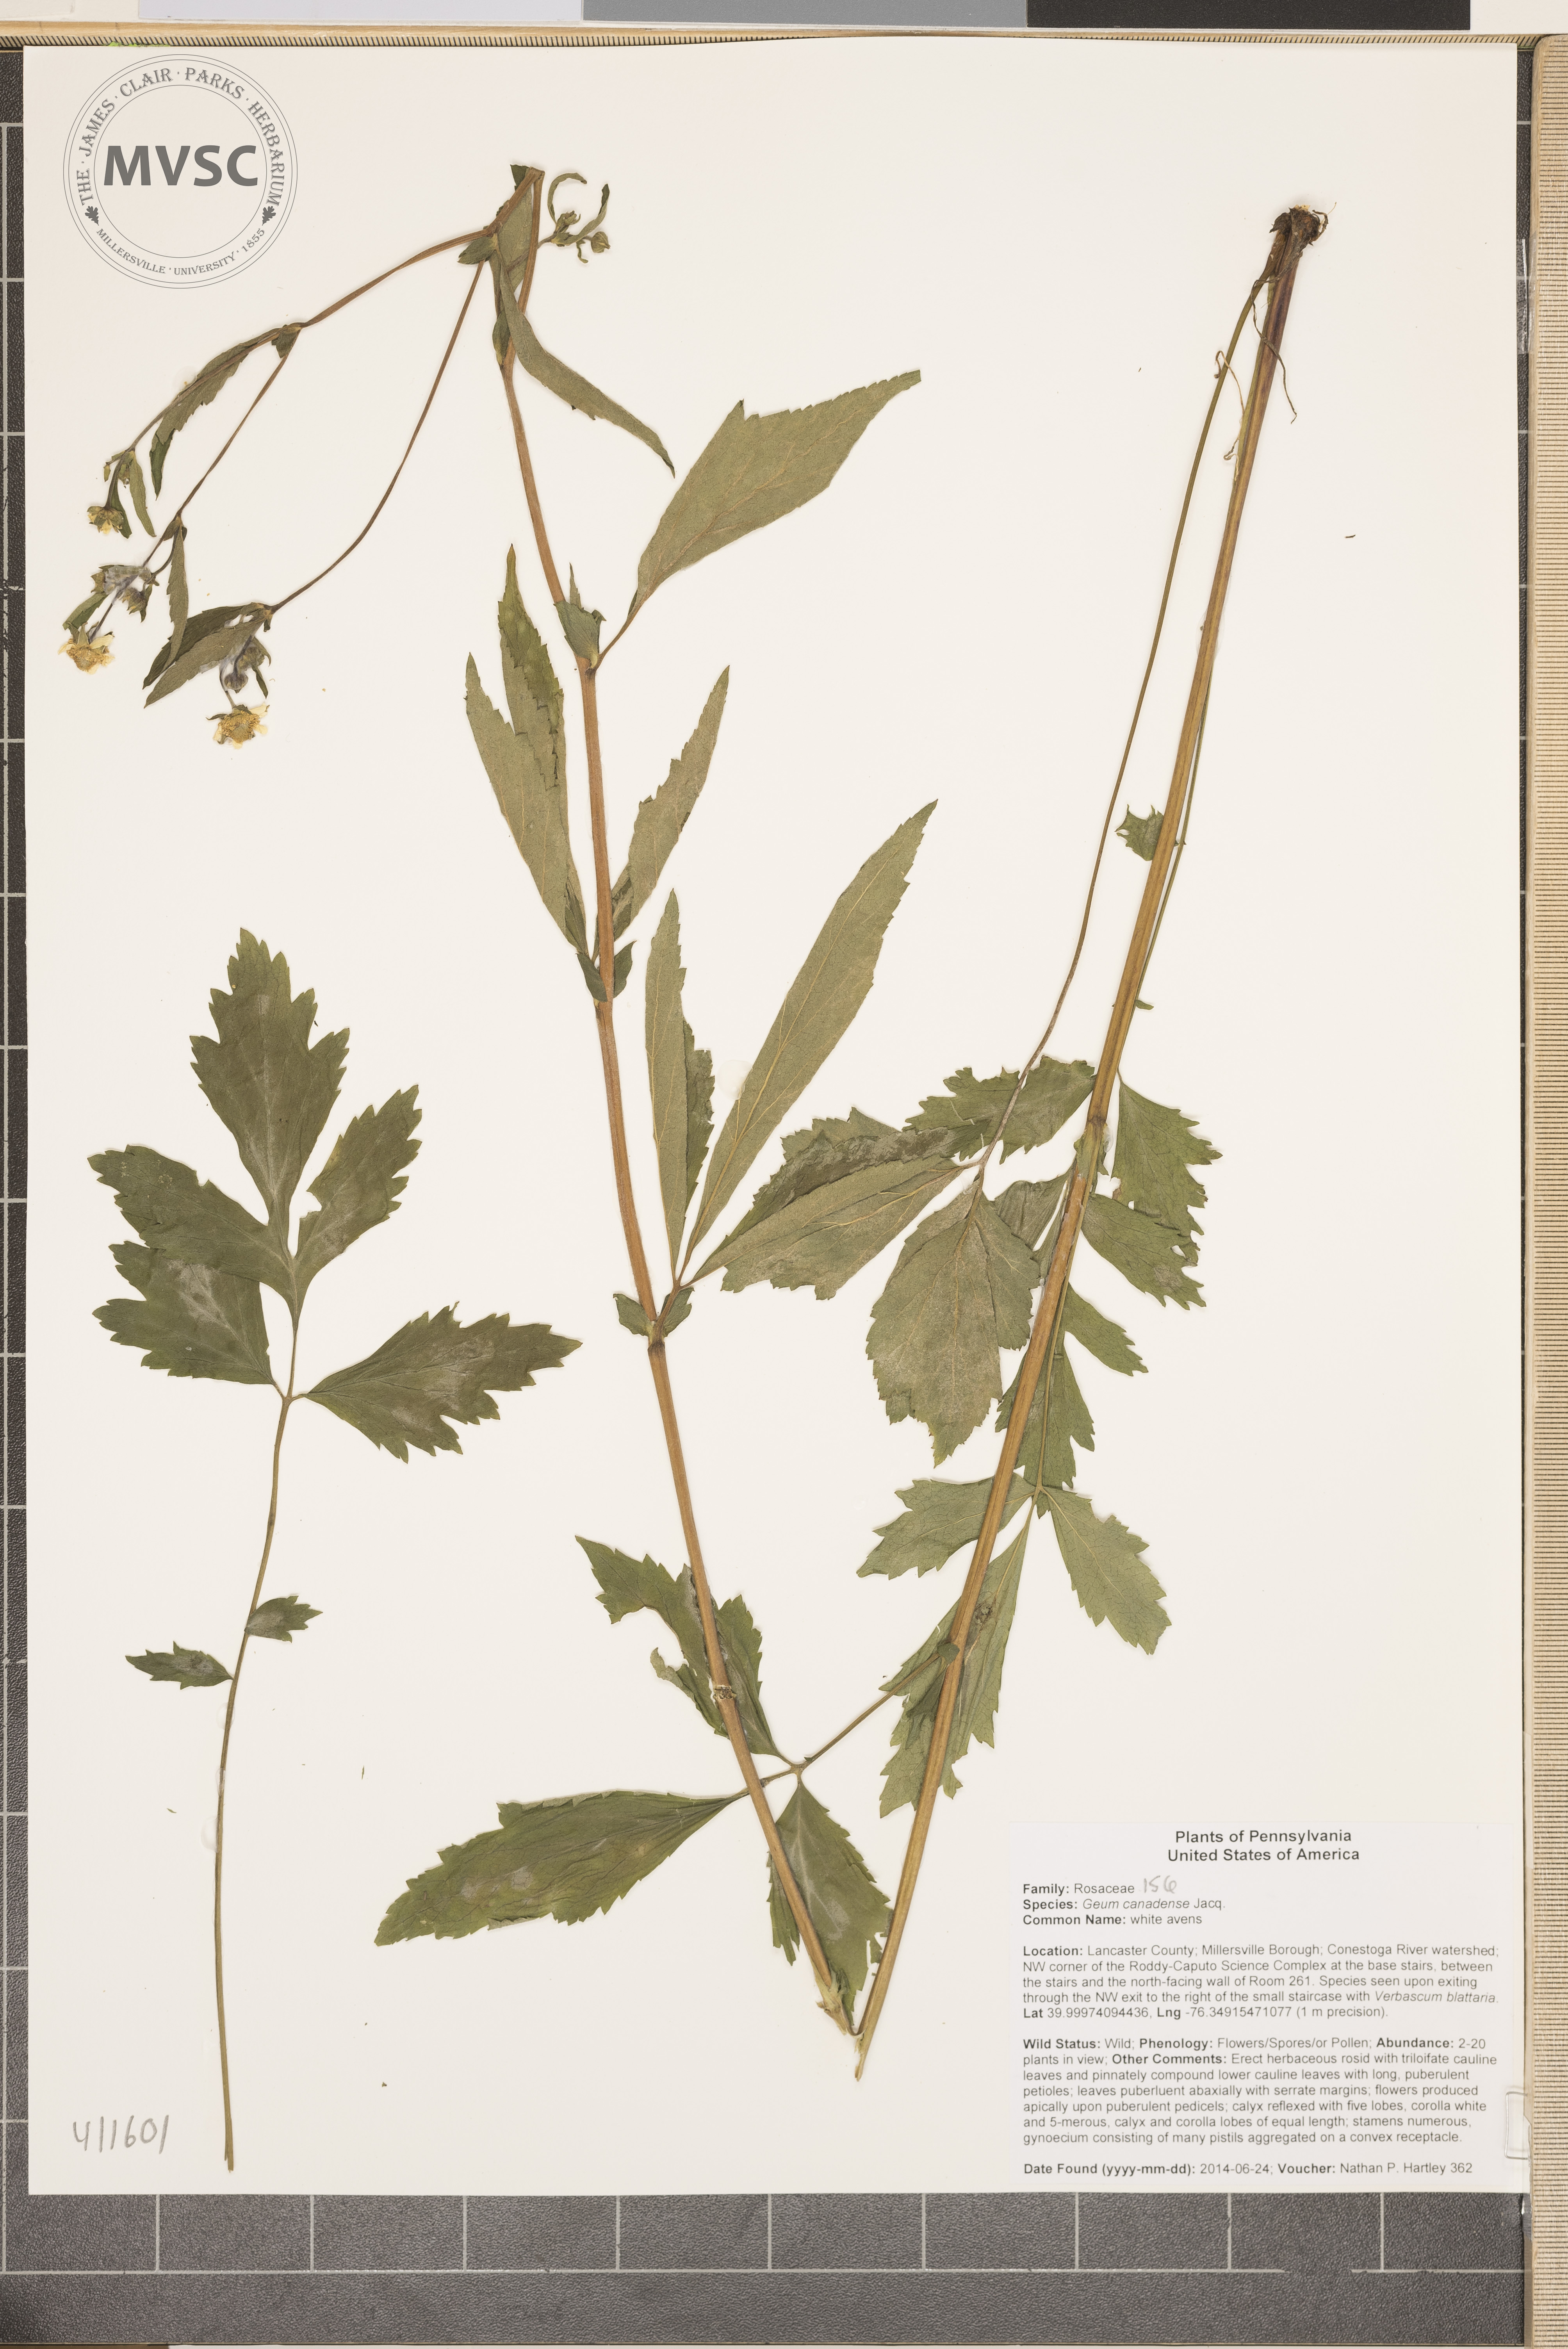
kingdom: Plantae
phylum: Tracheophyta
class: Magnoliopsida
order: Rosales
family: Rosaceae
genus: Geum
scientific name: Geum canadense
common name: white avens
